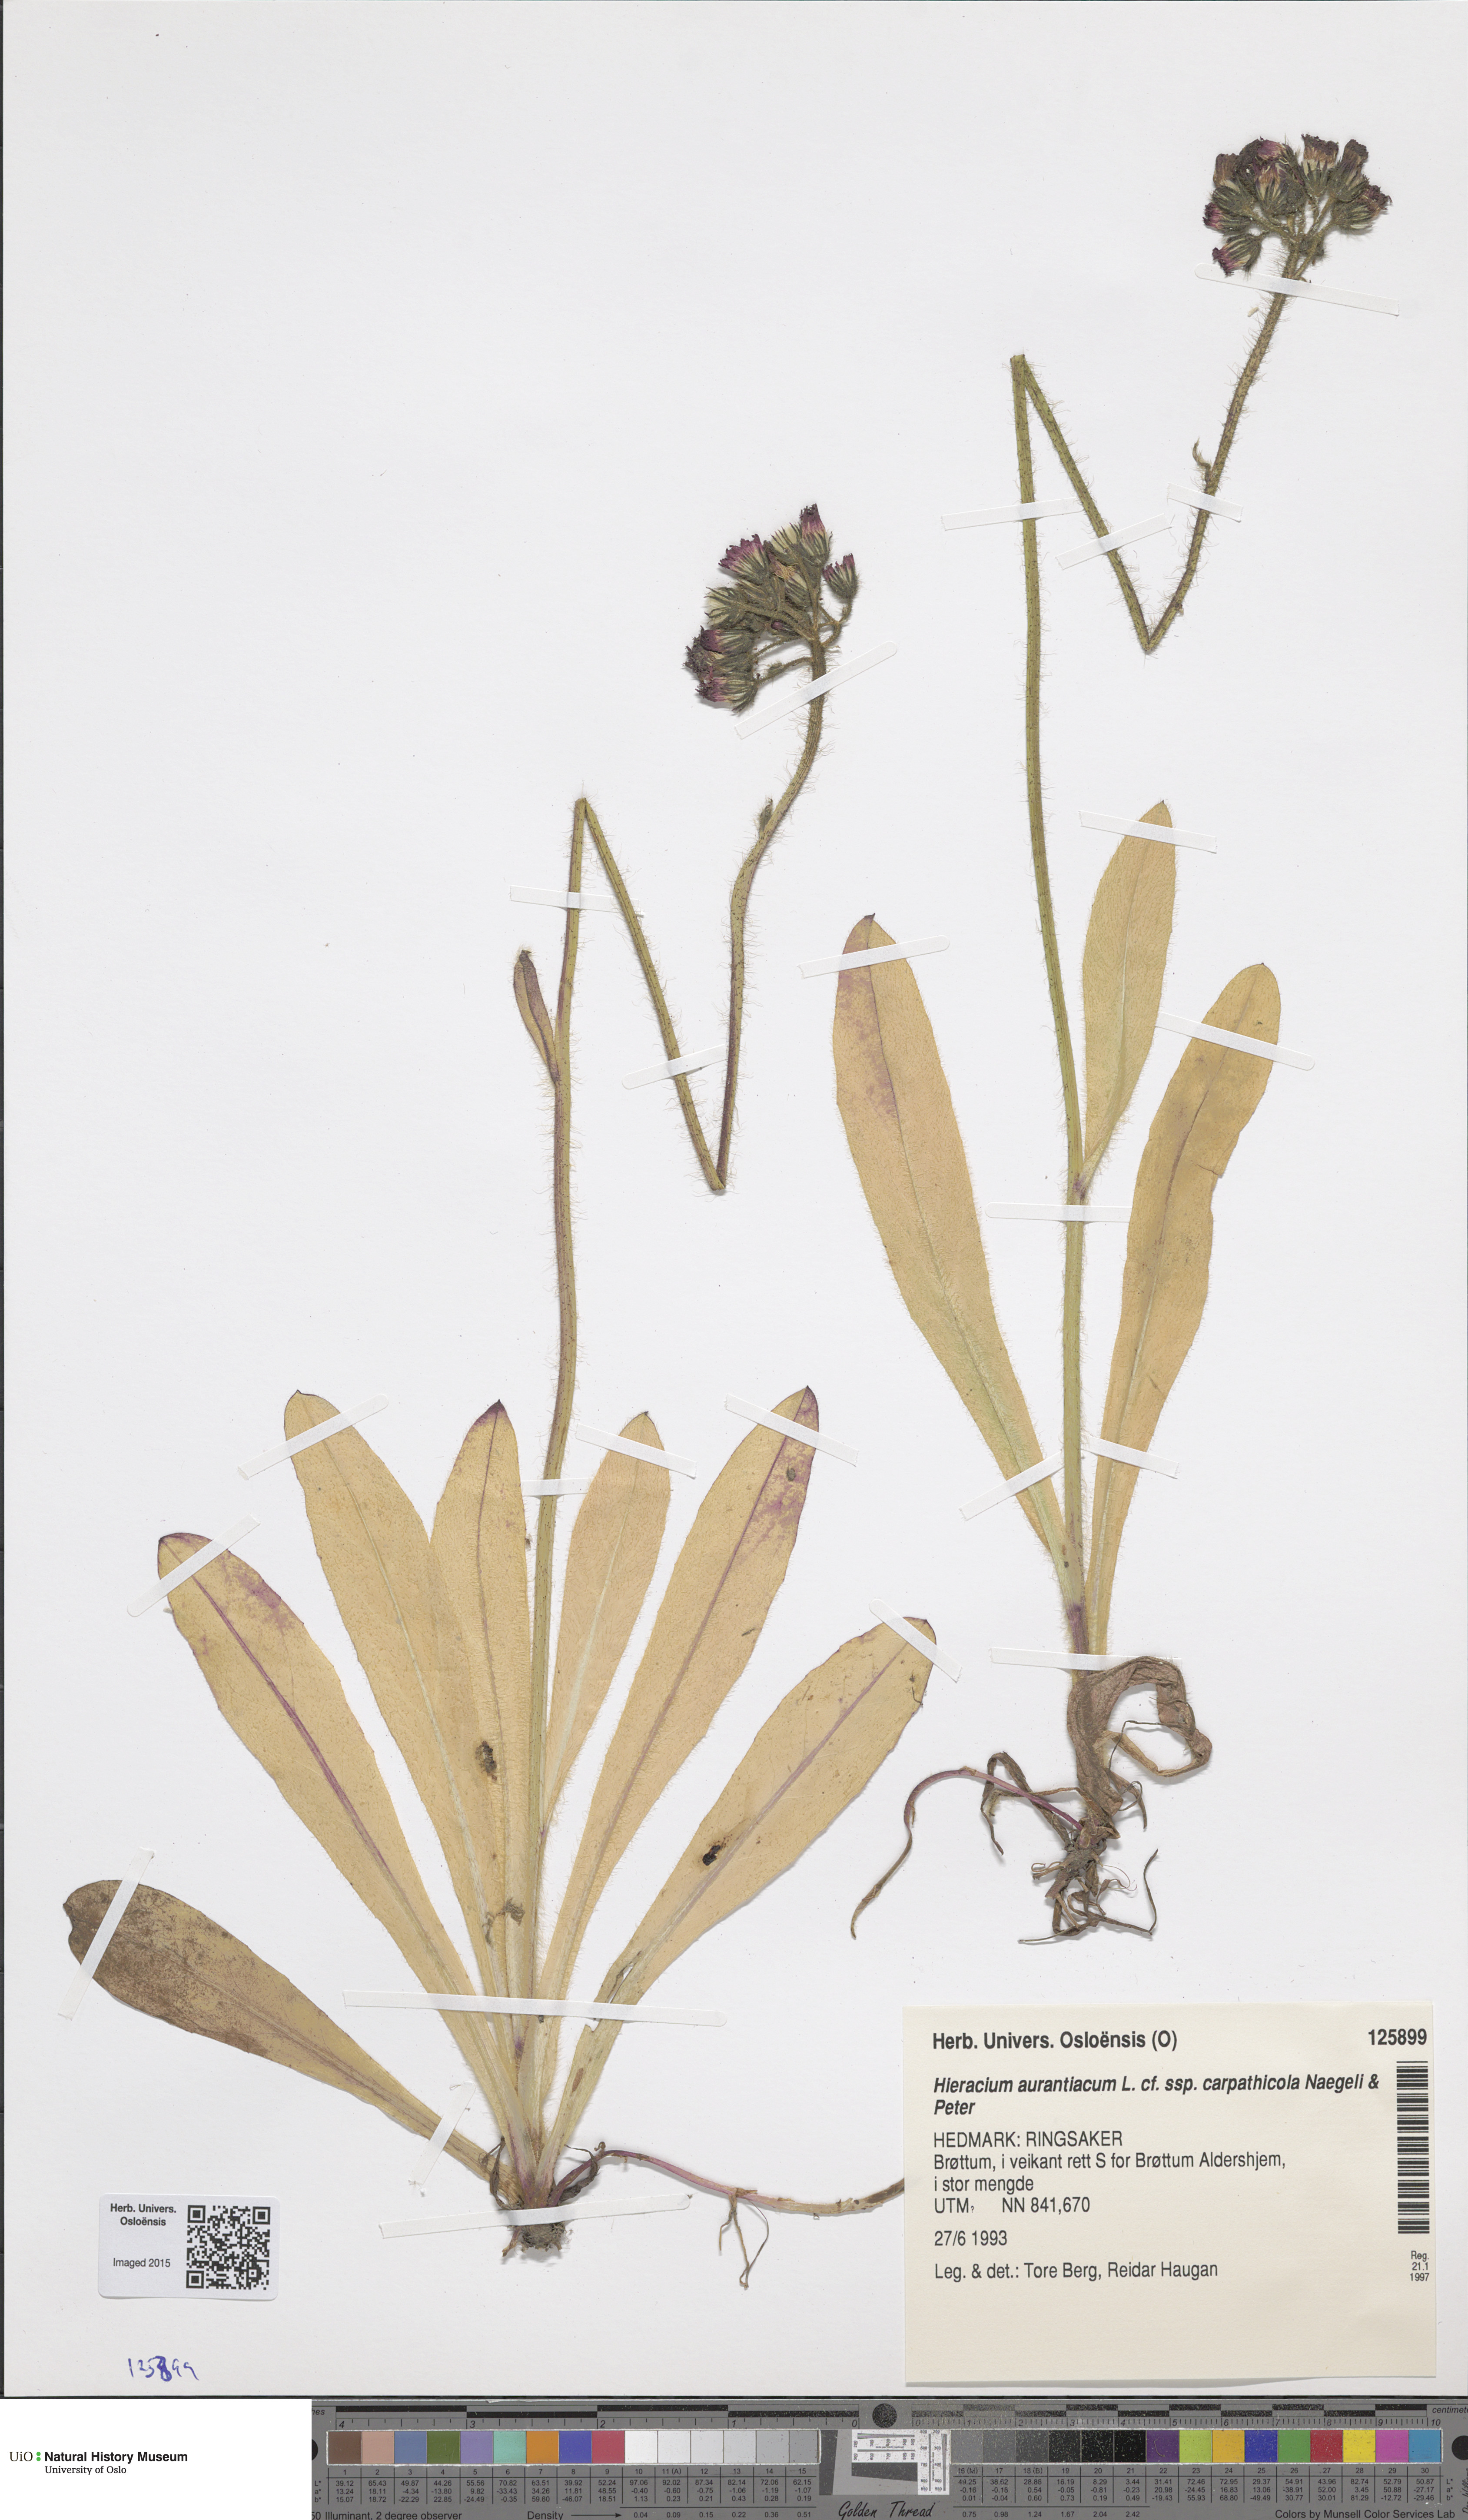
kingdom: Plantae
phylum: Tracheophyta
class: Magnoliopsida
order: Asterales
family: Asteraceae
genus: Pilosella
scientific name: Pilosella aurantiaca
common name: Fox-and-cubs
